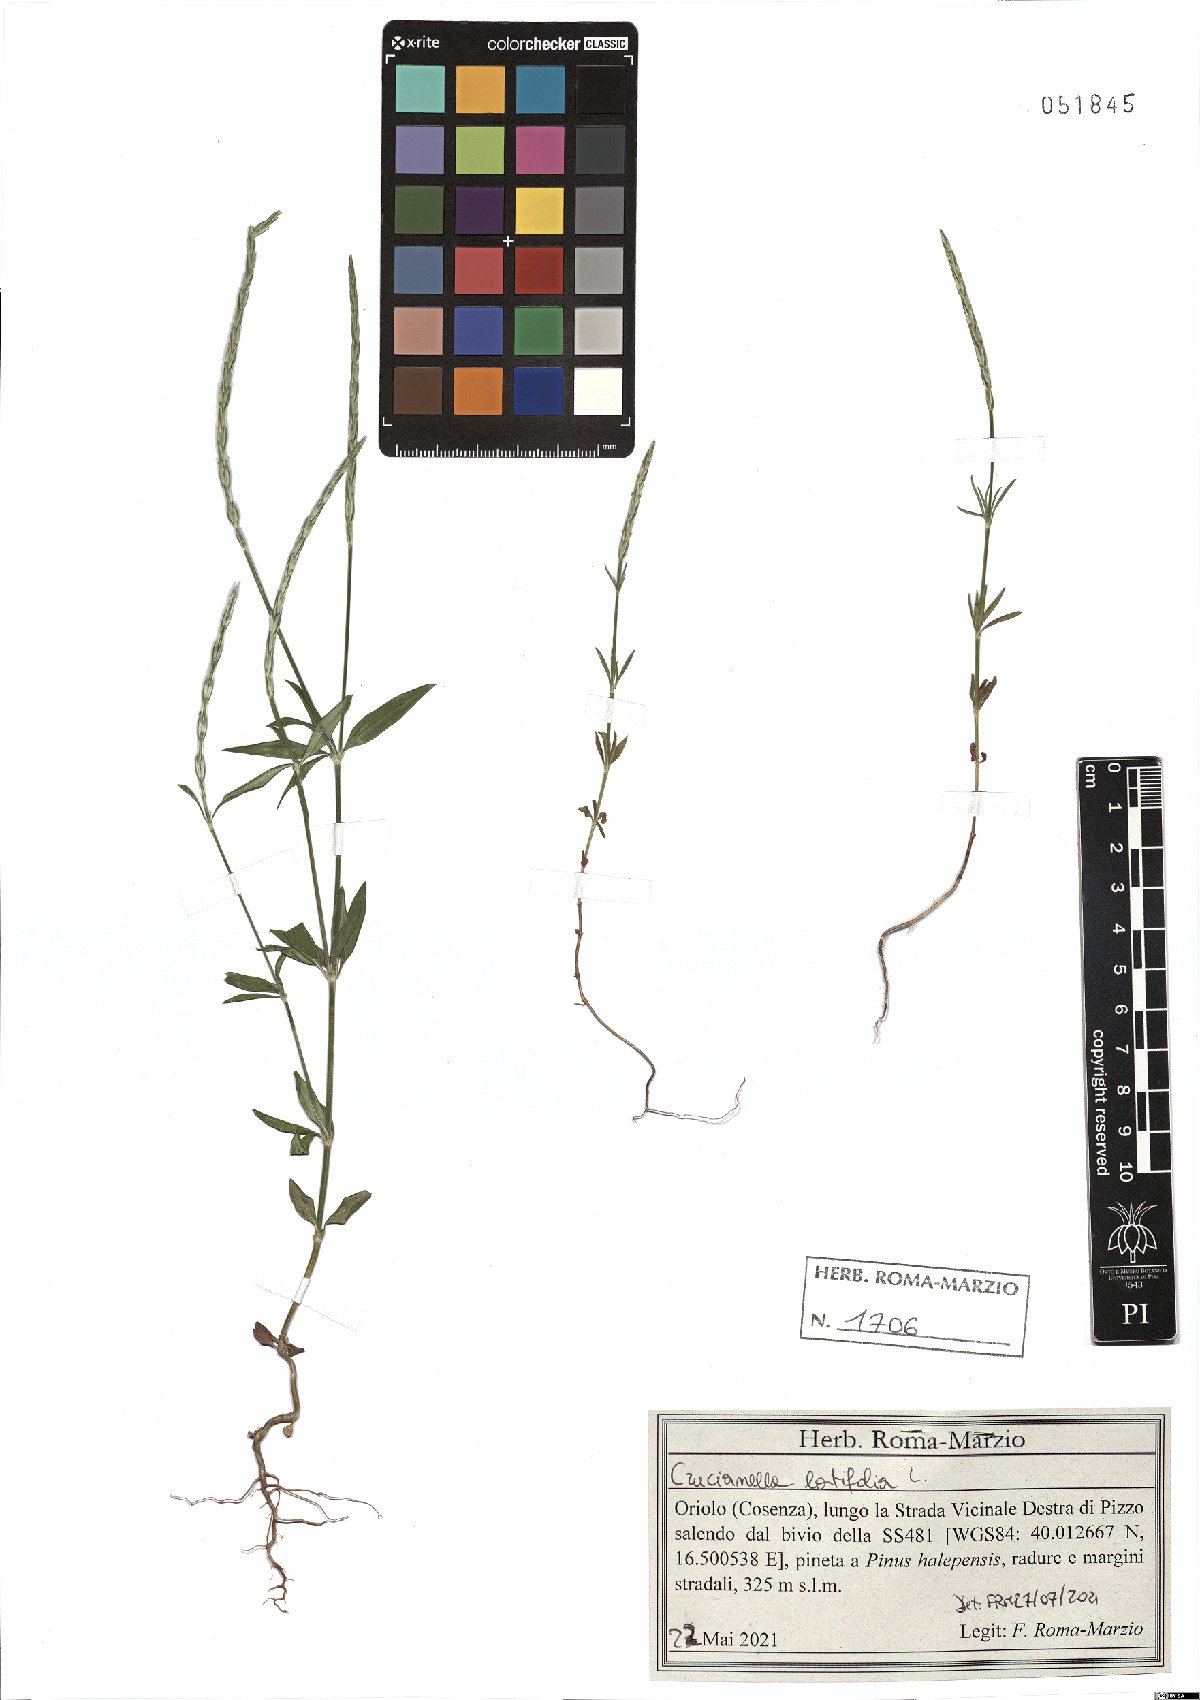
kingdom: Plantae
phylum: Tracheophyta
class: Magnoliopsida
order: Gentianales
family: Rubiaceae
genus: Crucianella
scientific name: Crucianella latifolia
